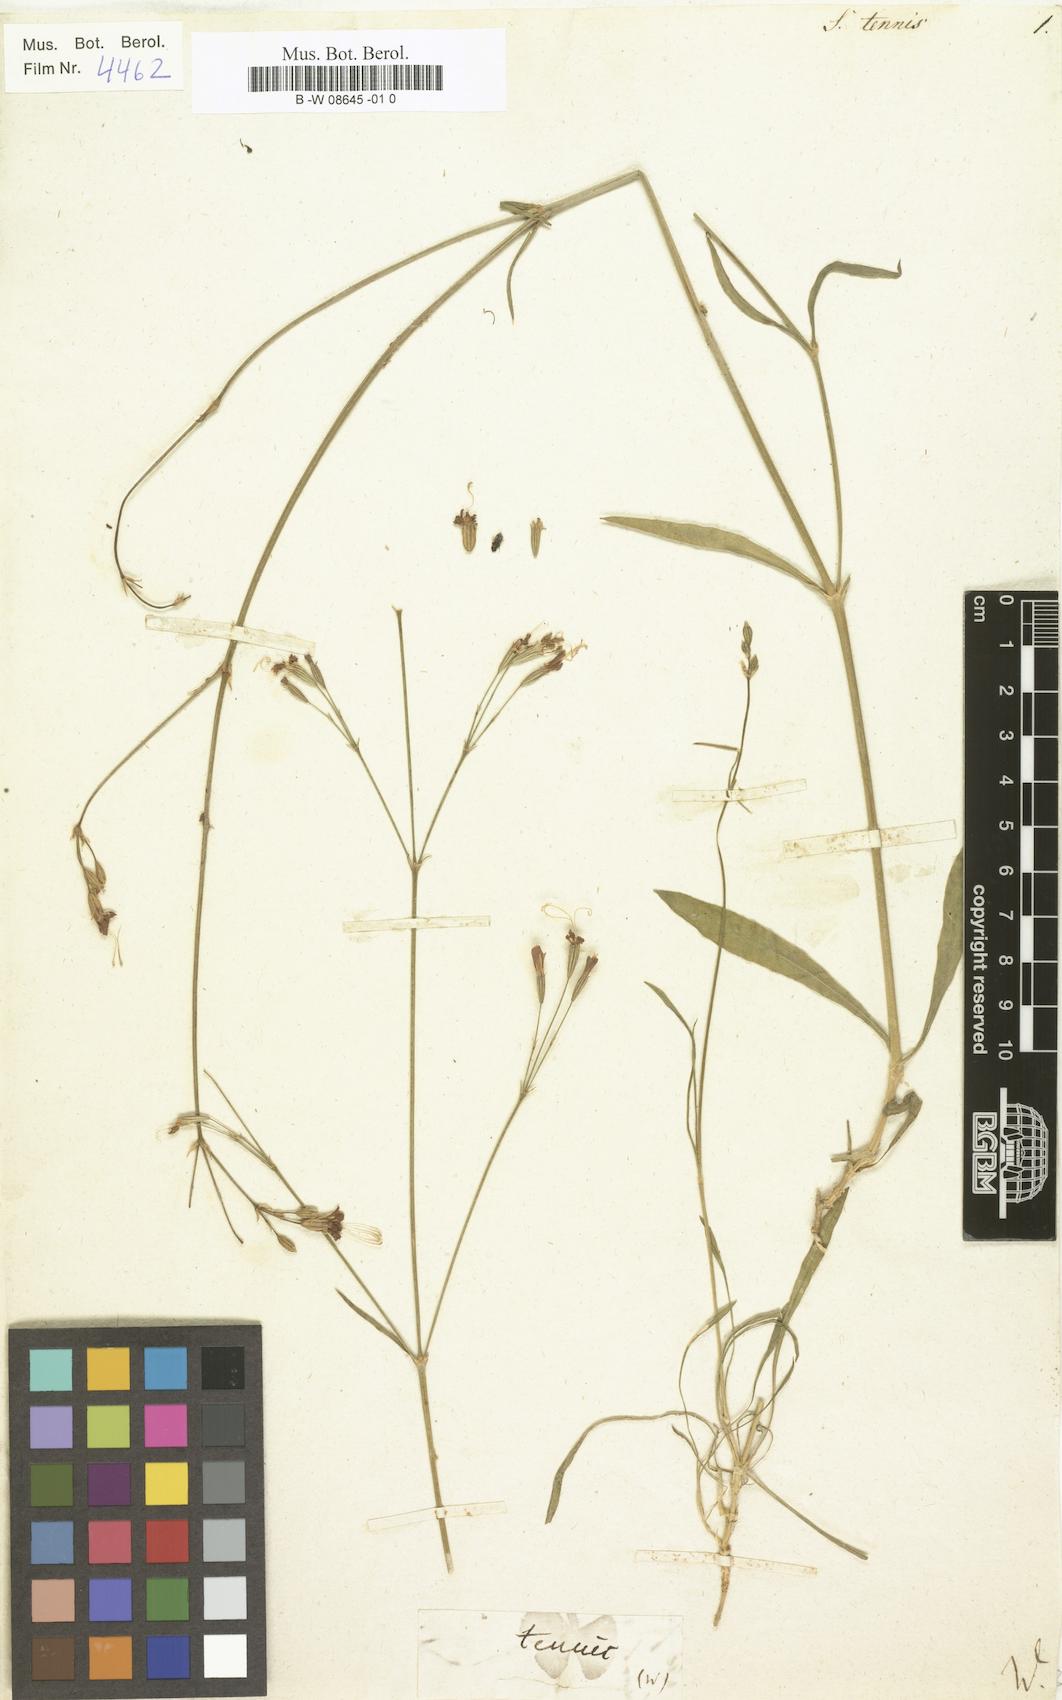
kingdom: Plantae
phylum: Tracheophyta
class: Magnoliopsida
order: Caryophyllales
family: Caryophyllaceae
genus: Silene
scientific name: Silene
